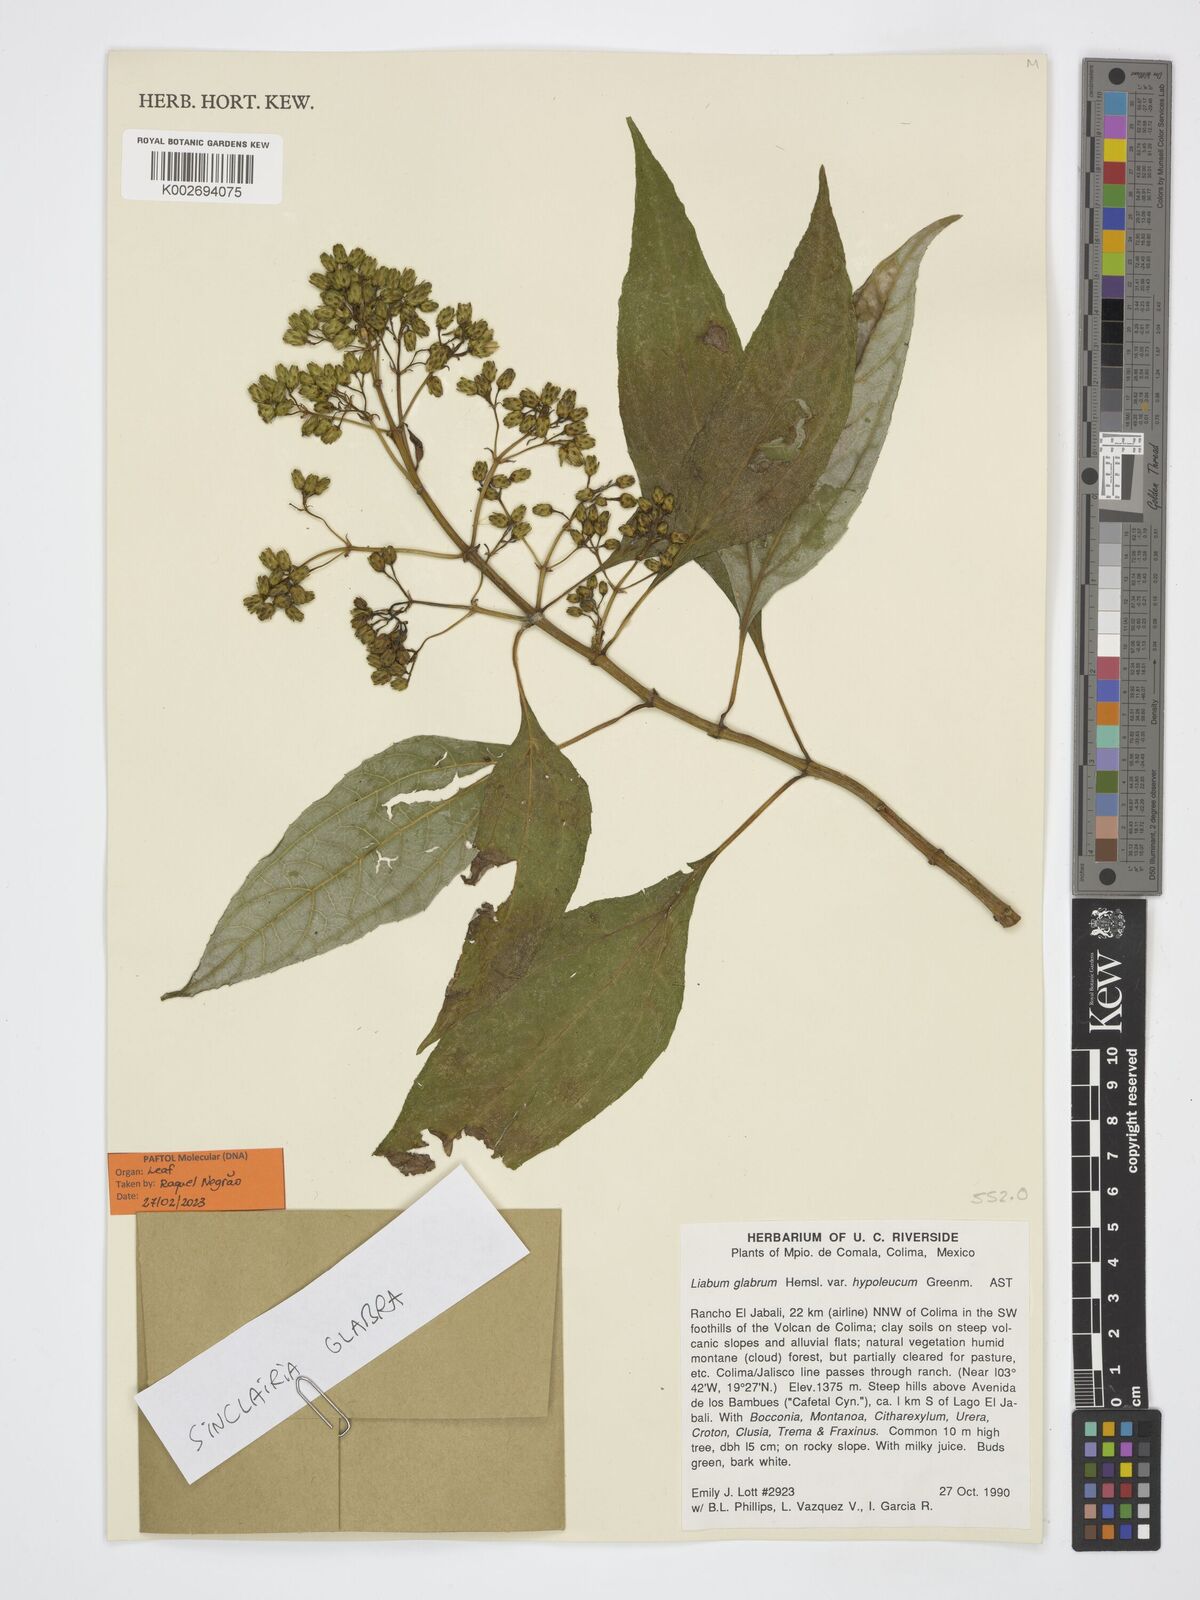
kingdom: Plantae
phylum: Tracheophyta
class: Magnoliopsida
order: Asterales
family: Asteraceae
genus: Sinclairia
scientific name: Sinclairia glabra
